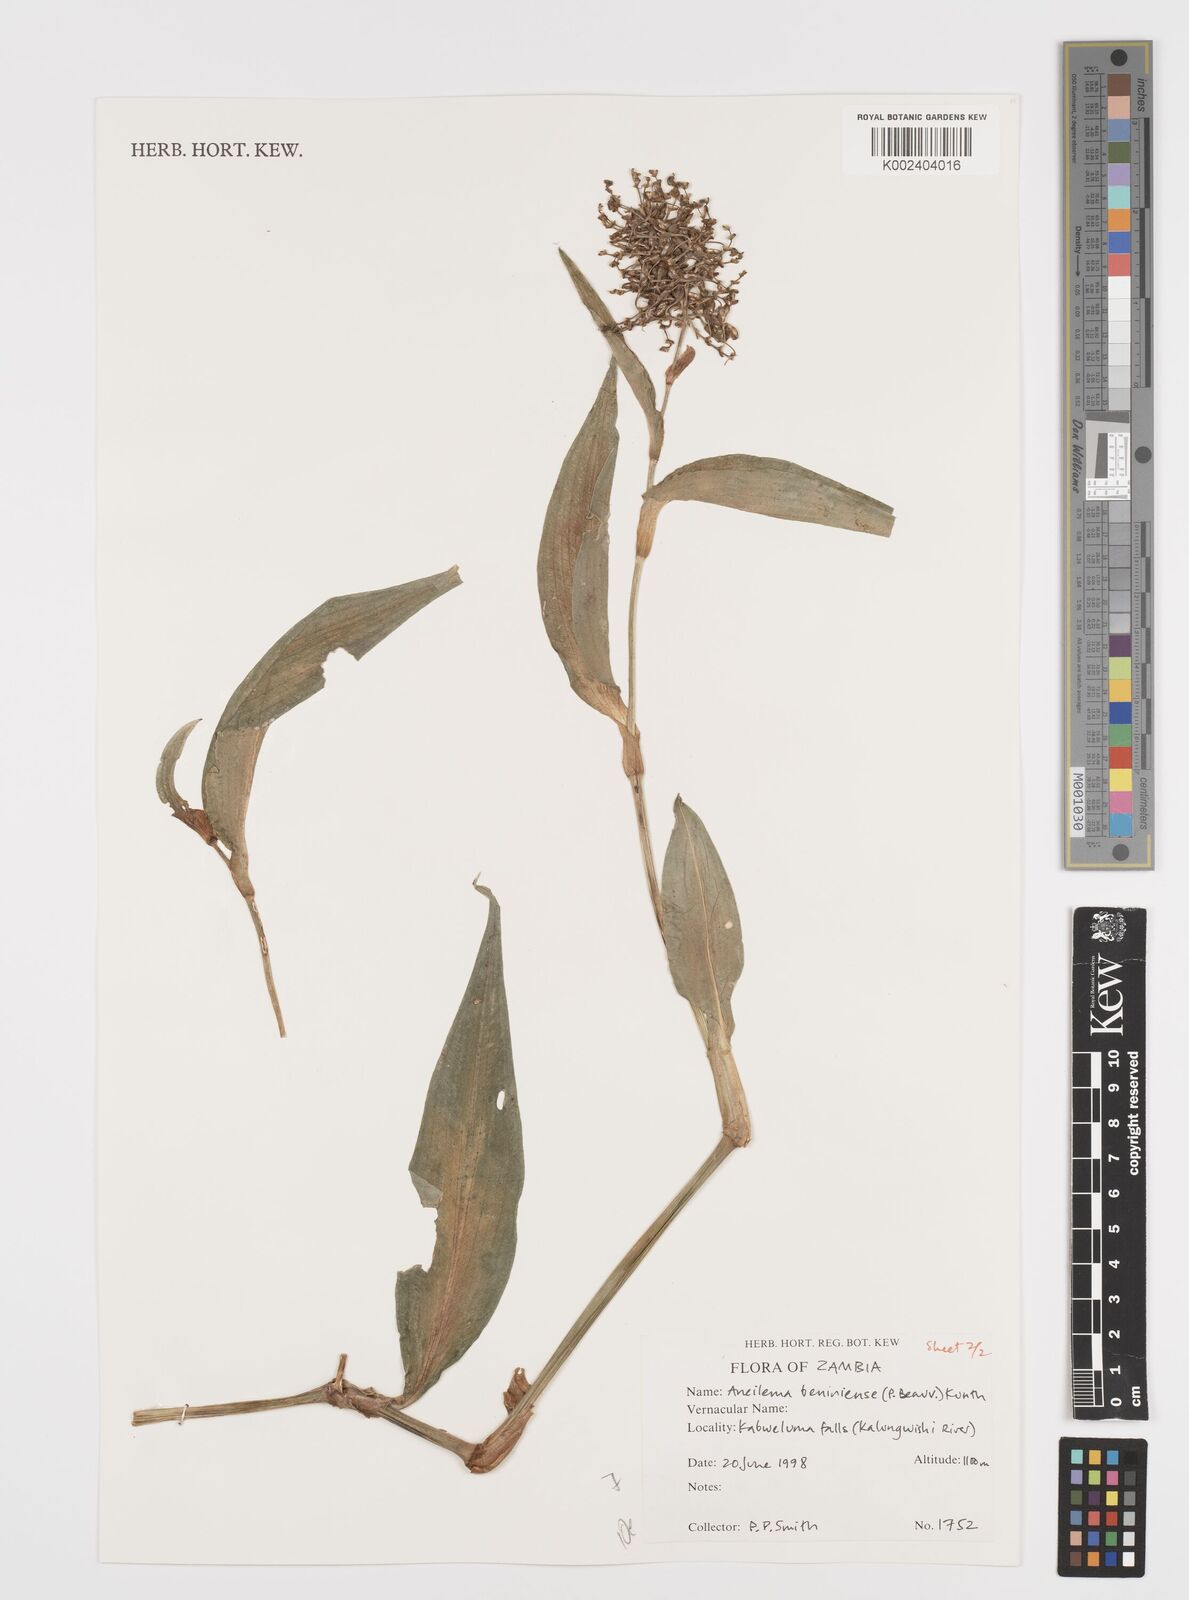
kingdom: Plantae
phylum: Tracheophyta
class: Liliopsida
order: Commelinales
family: Commelinaceae
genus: Aneilema
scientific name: Aneilema beniniense
